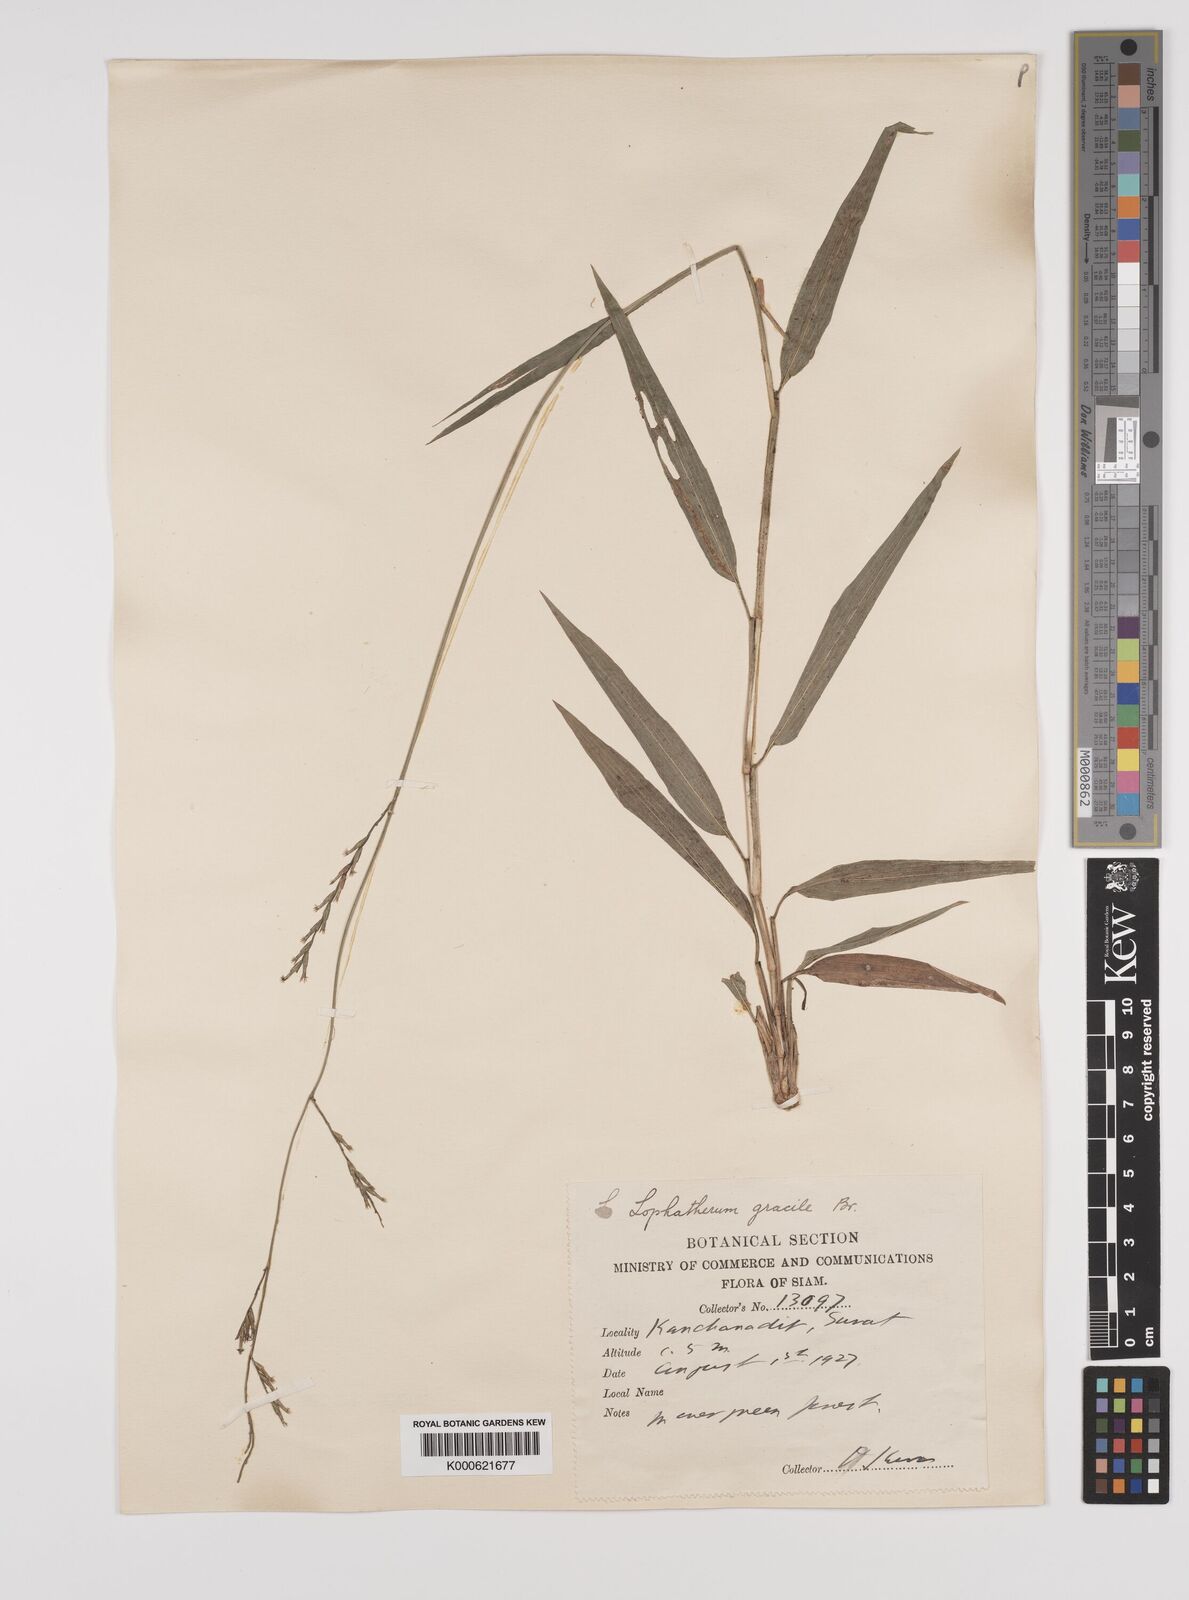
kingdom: Plantae
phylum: Tracheophyta
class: Liliopsida
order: Poales
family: Poaceae
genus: Lophatherum
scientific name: Lophatherum gracile
